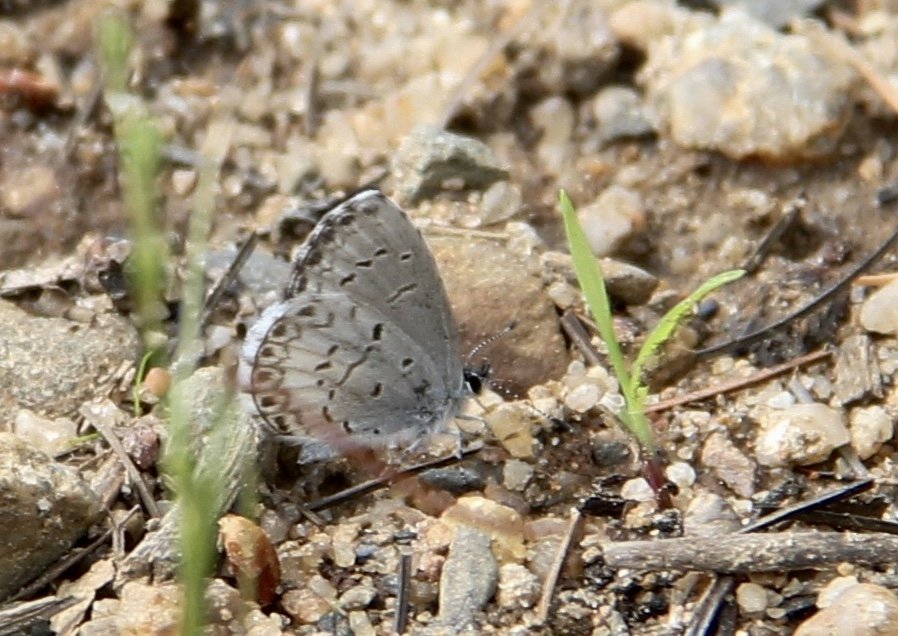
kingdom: Animalia
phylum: Arthropoda
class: Insecta
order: Lepidoptera
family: Lycaenidae
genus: Cyaniris
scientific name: Cyaniris neglecta
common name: Summer Azure
